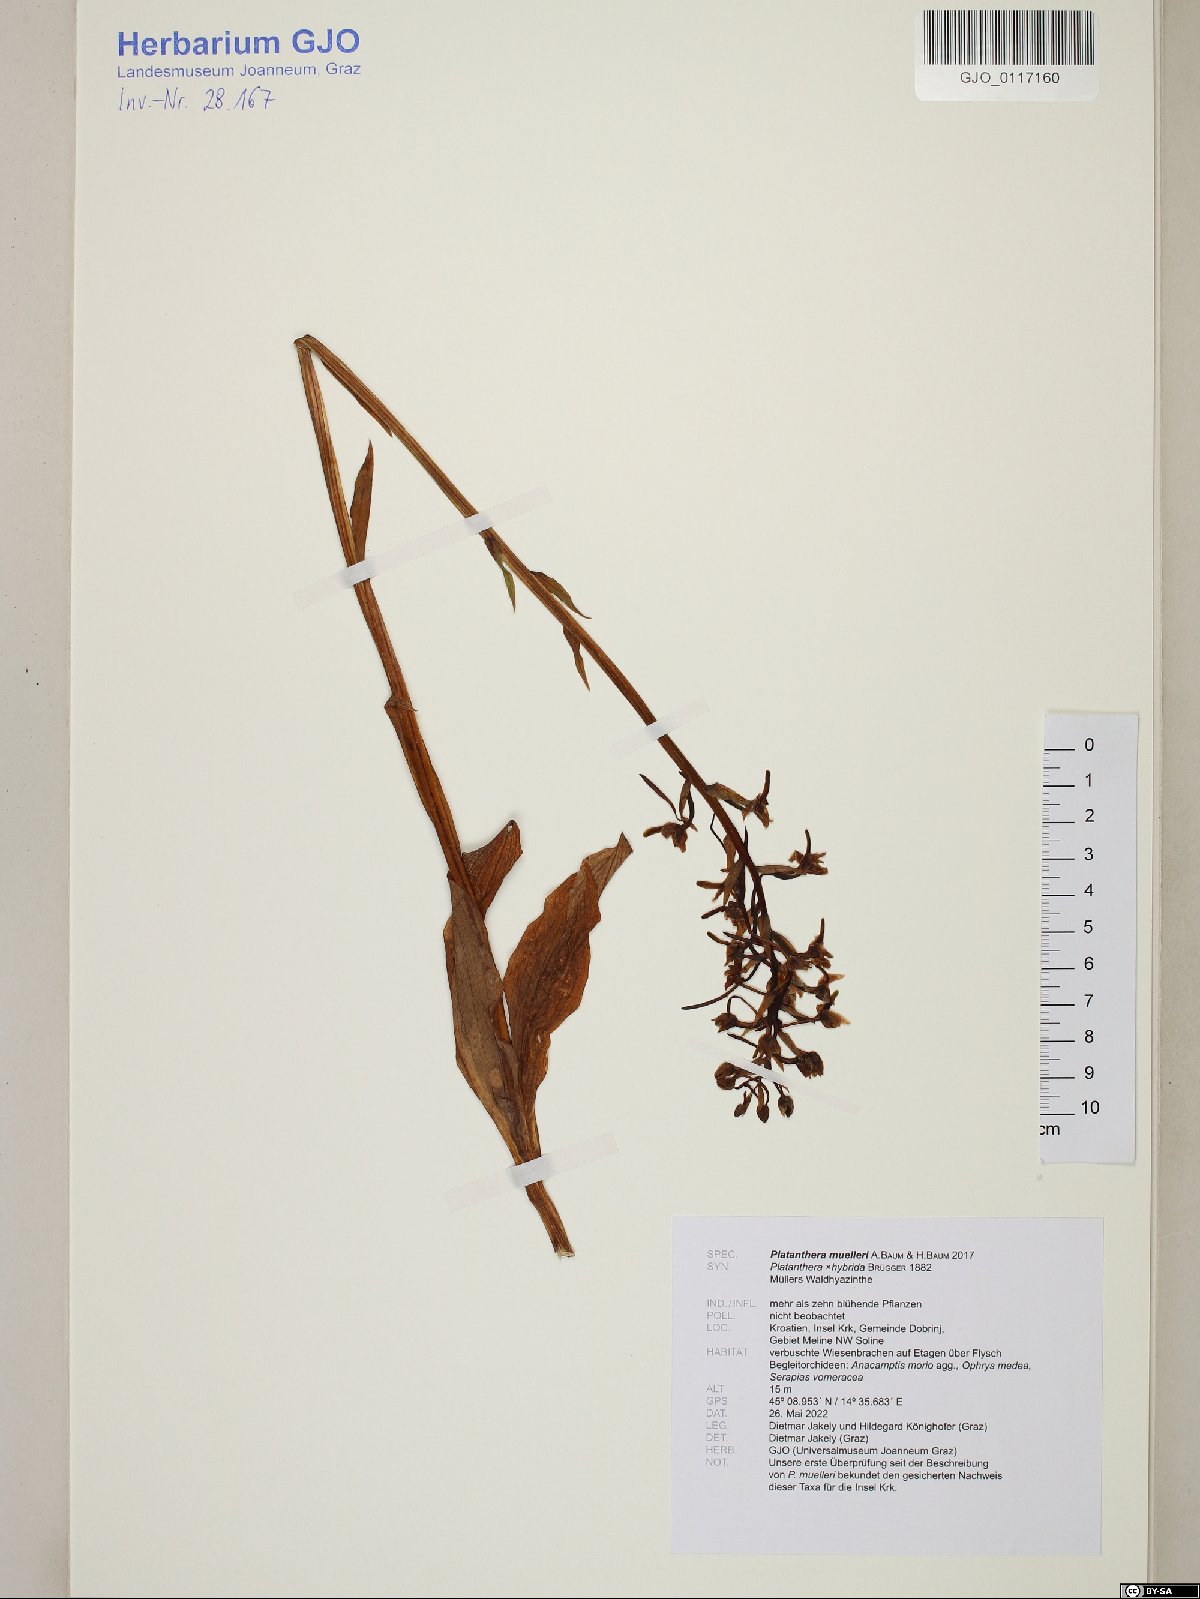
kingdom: Plantae
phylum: Tracheophyta
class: Liliopsida
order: Asparagales
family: Orchidaceae
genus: Platanthera
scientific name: Platanthera muelleri
